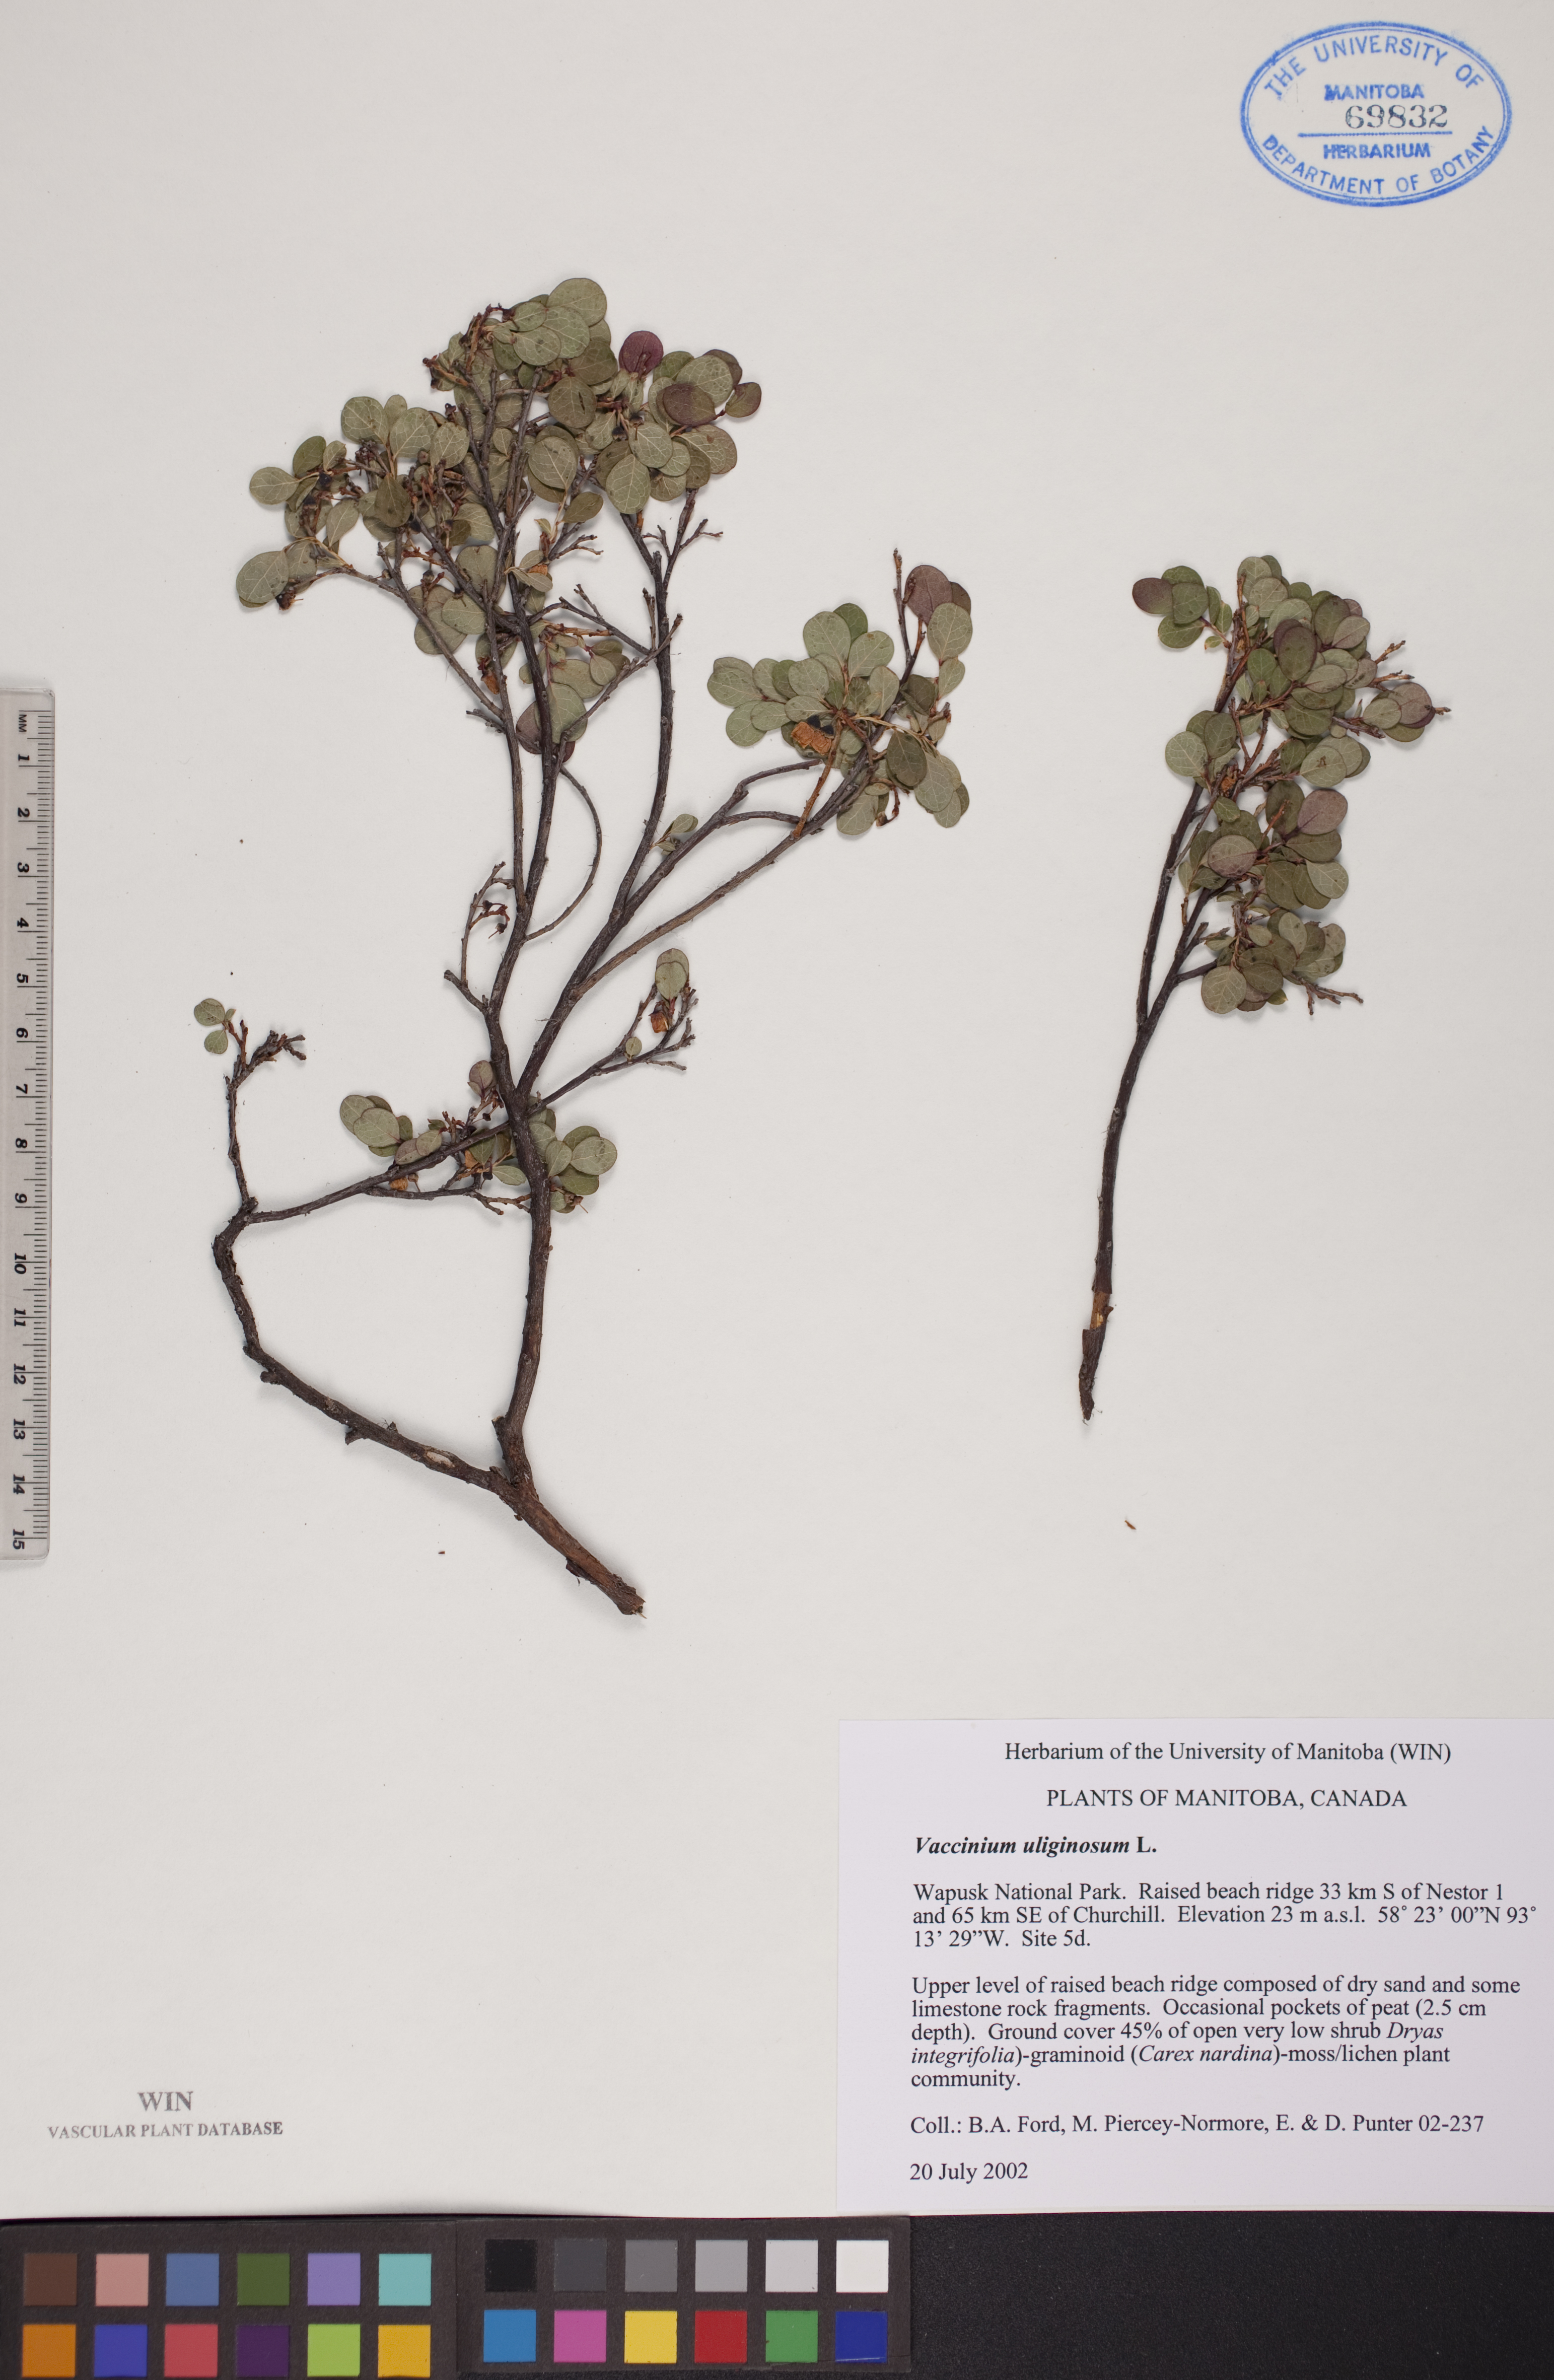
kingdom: Plantae
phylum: Tracheophyta
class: Magnoliopsida
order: Ericales
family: Ericaceae
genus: Vaccinium
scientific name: Vaccinium uliginosum
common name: Bog bilberry
